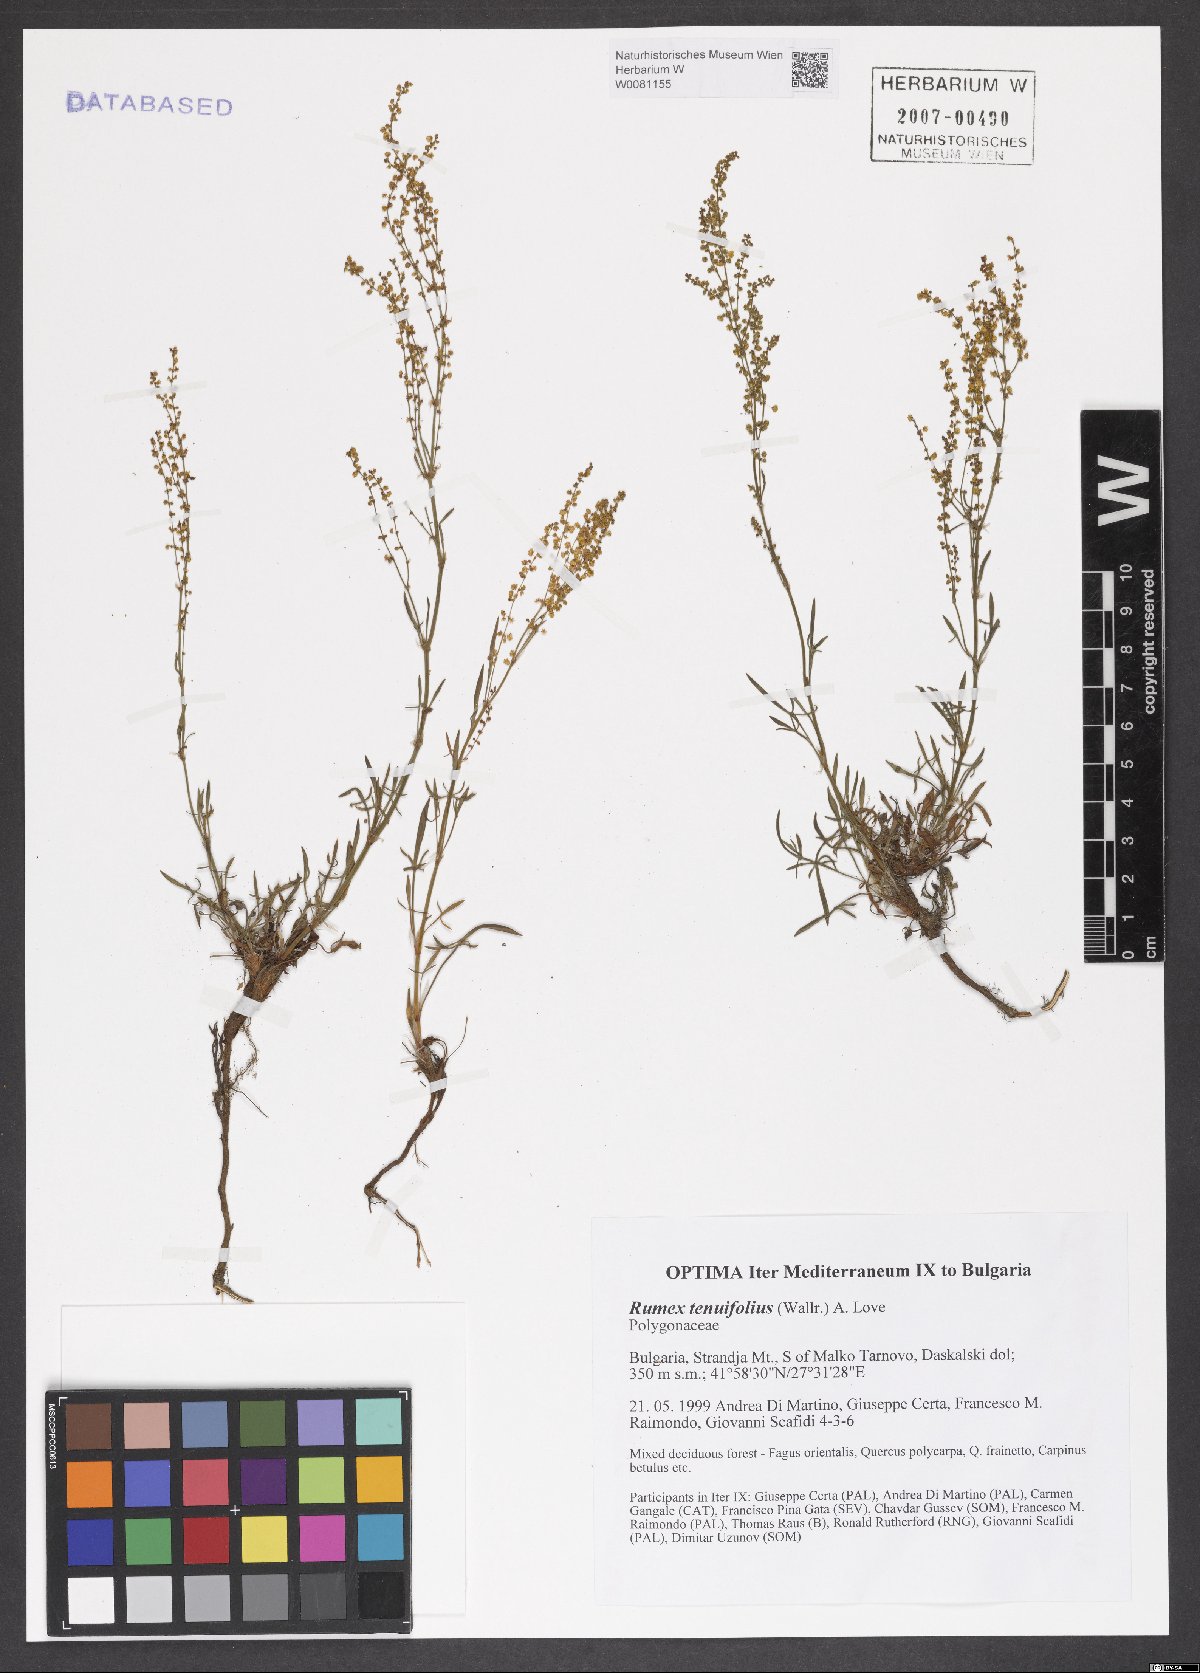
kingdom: Plantae
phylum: Tracheophyta
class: Magnoliopsida
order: Caryophyllales
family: Polygonaceae
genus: Rumex
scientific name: Rumex acetosella
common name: Common sheep sorrel
